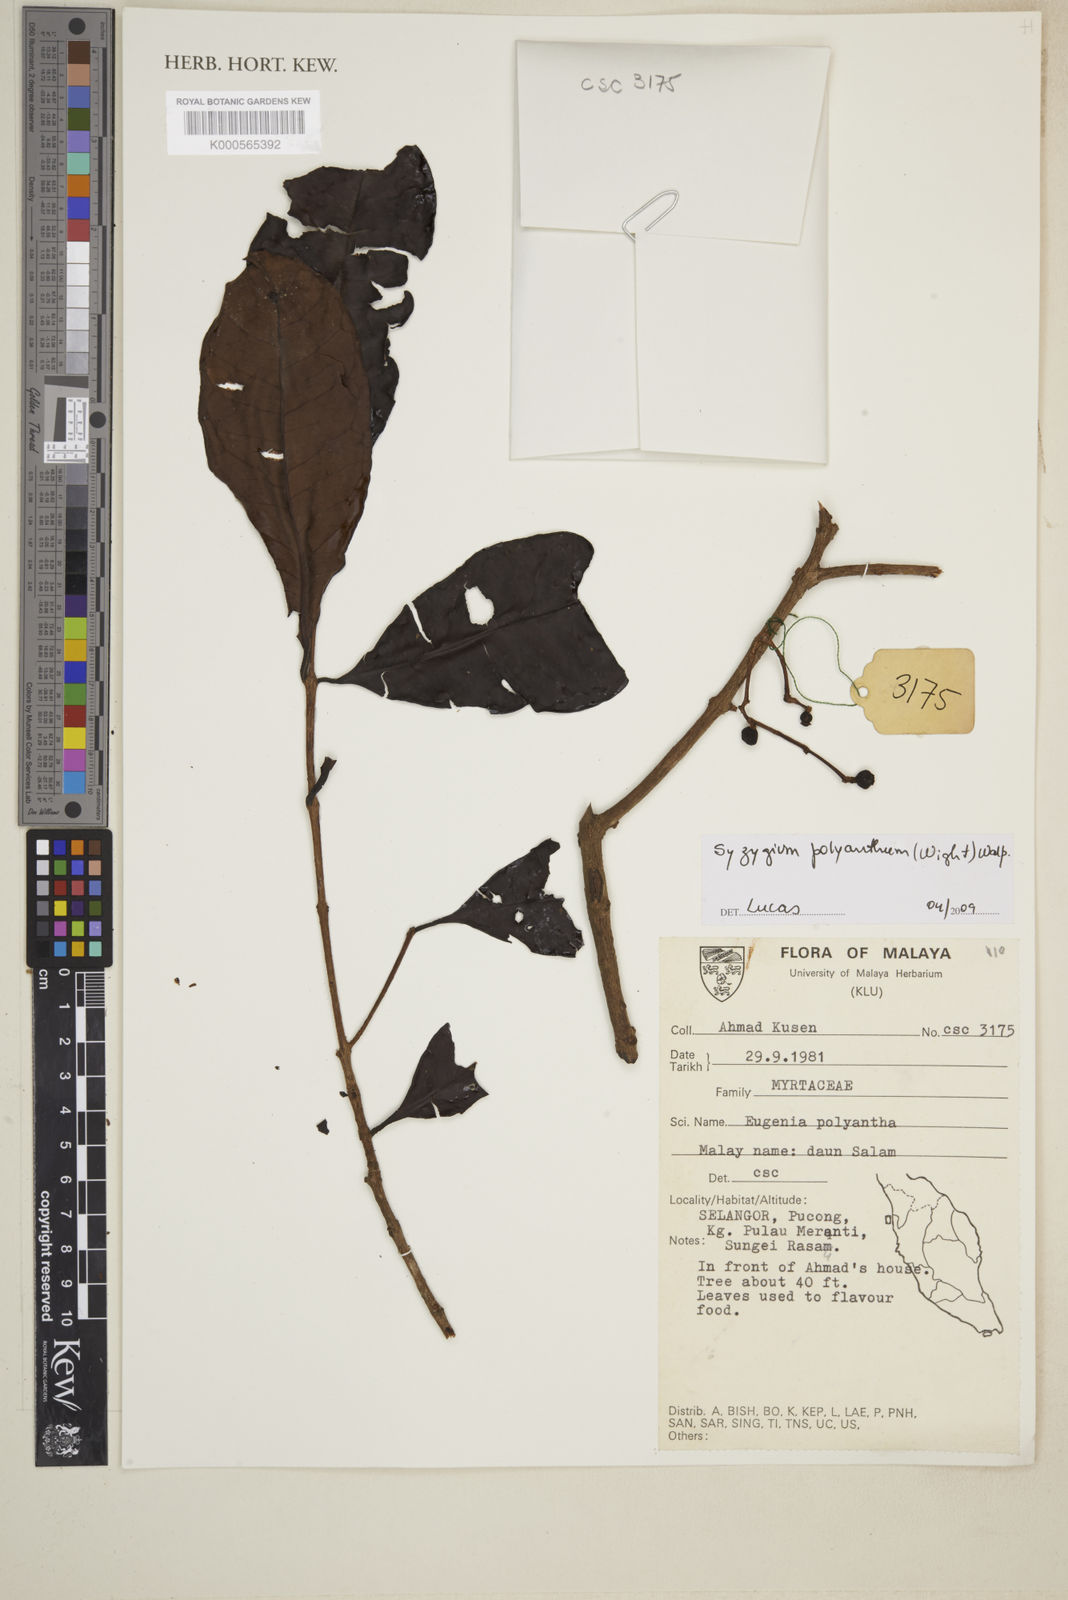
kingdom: Plantae
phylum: Tracheophyta
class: Magnoliopsida
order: Myrtales
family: Myrtaceae
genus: Syzygium
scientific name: Syzygium polyanthum
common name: Indonesian bayleaf
